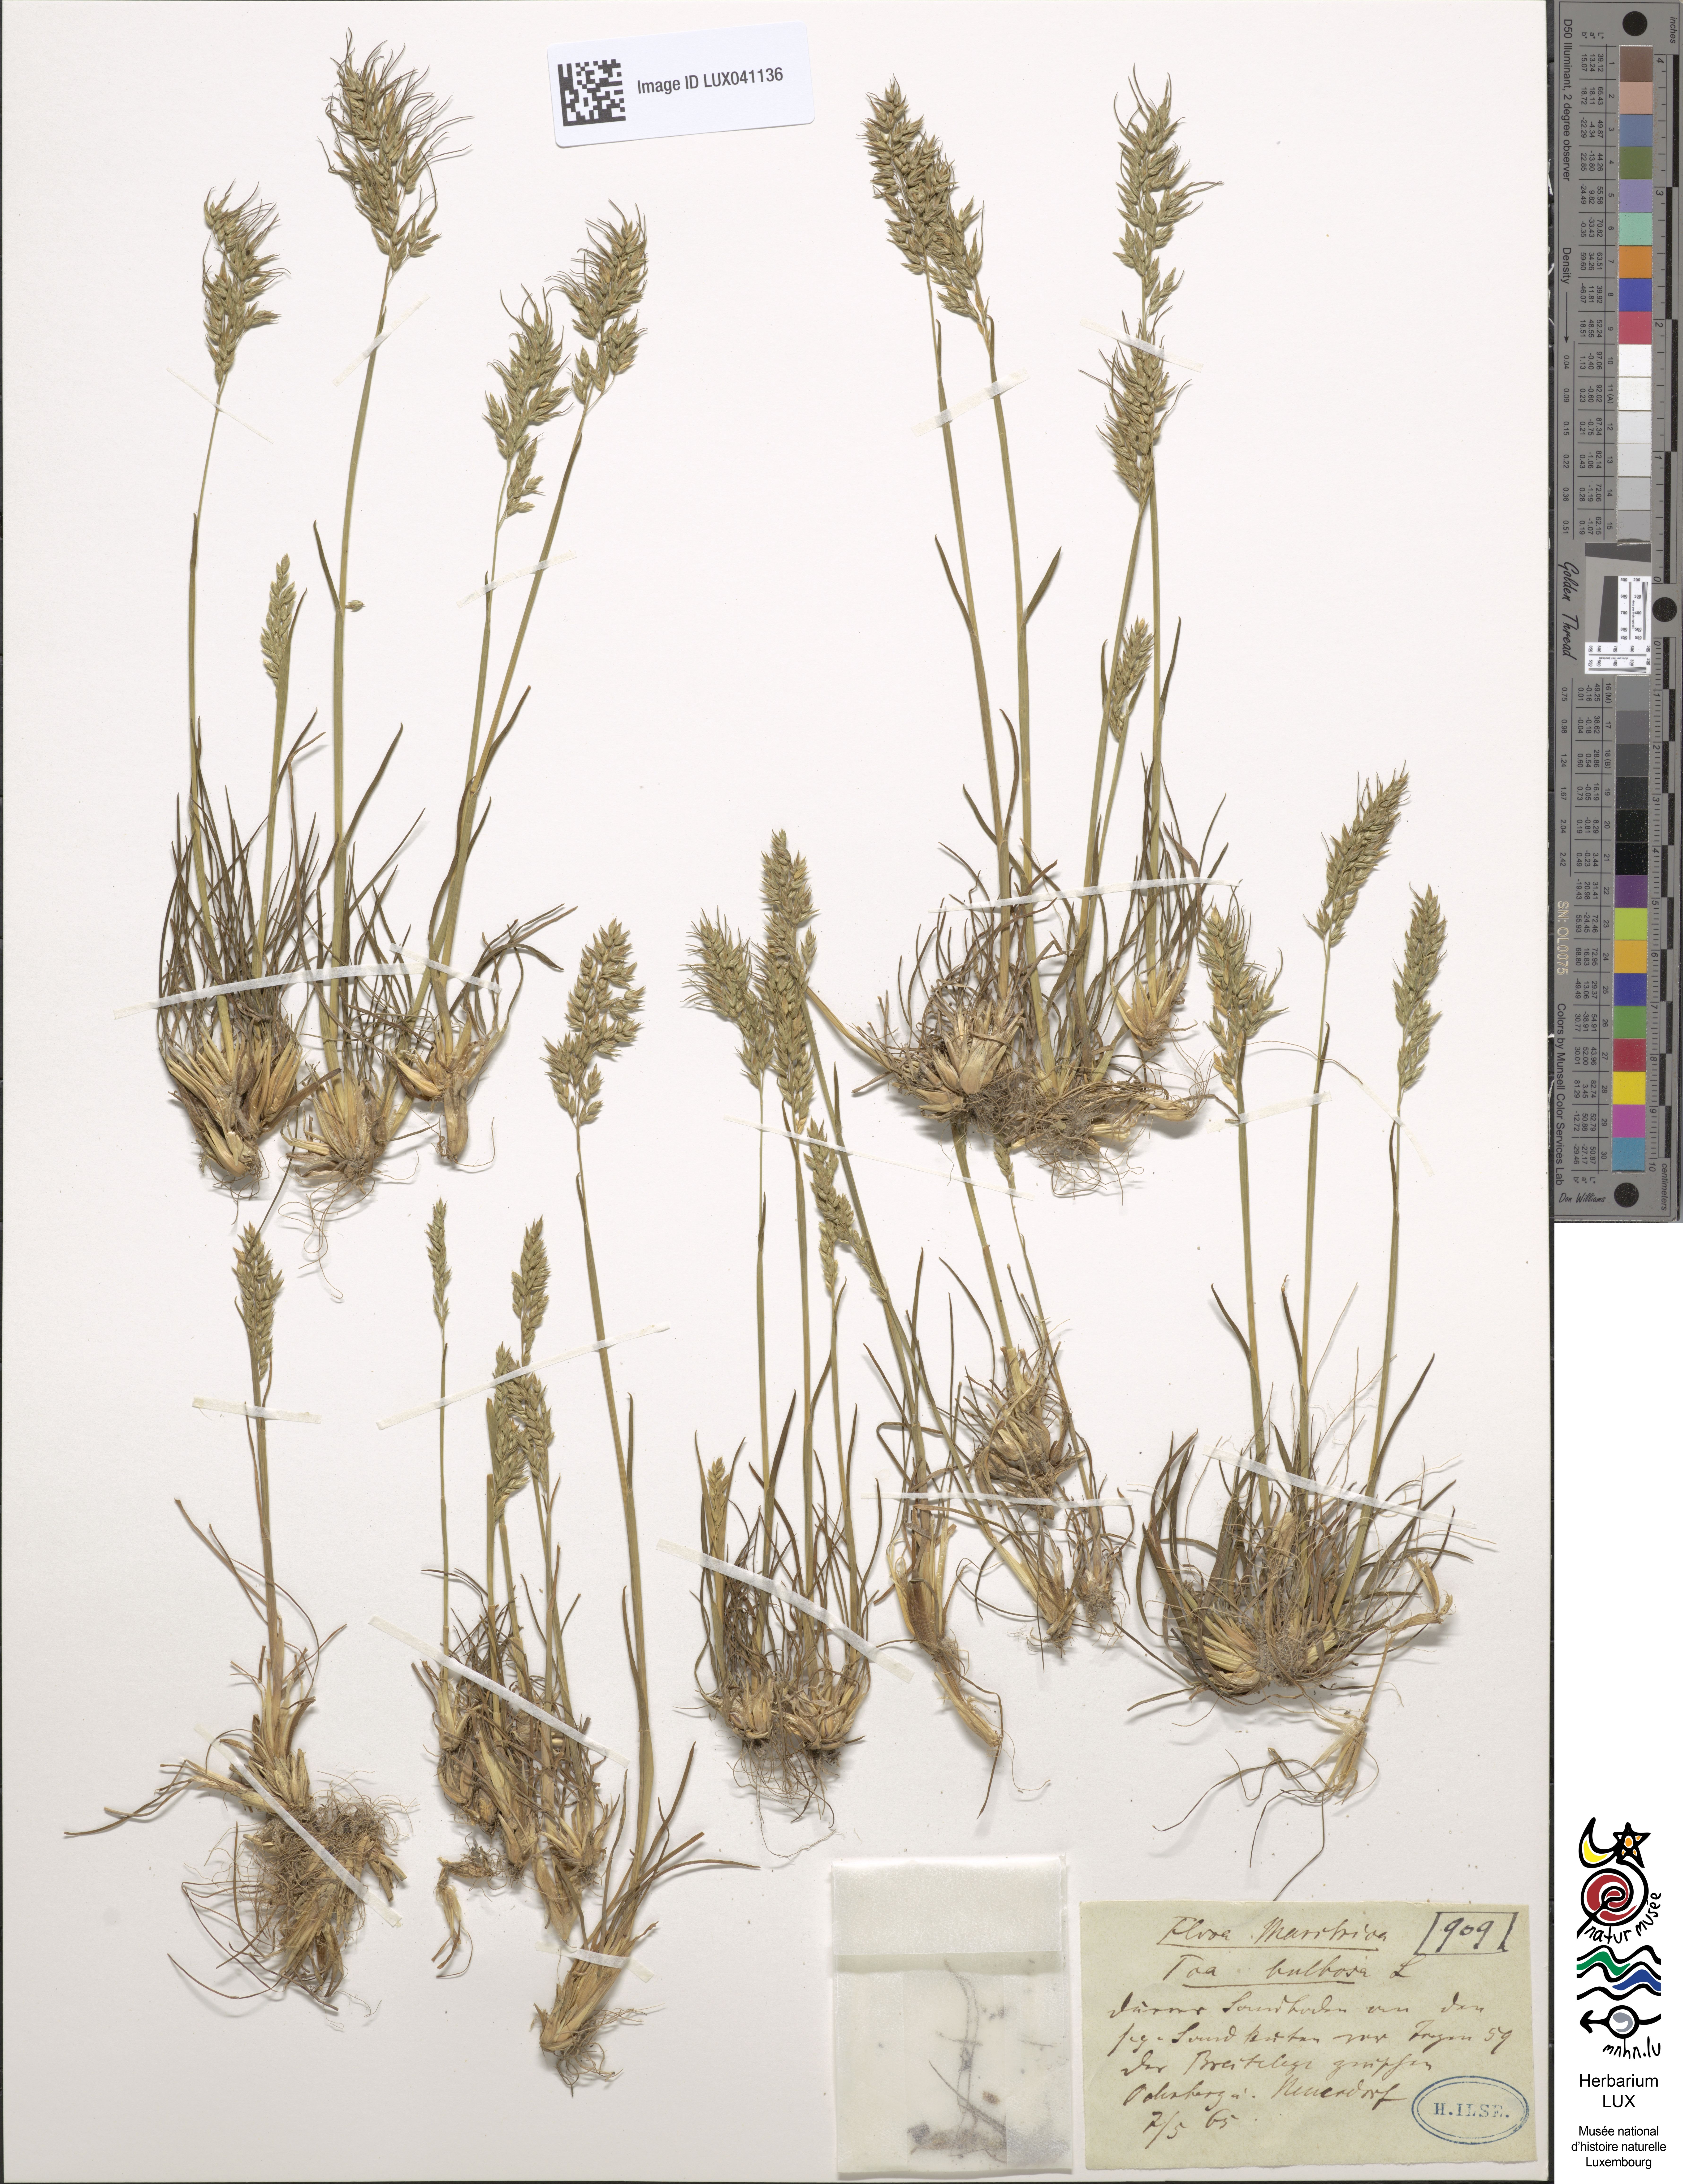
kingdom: Plantae
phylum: Tracheophyta
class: Liliopsida
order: Poales
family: Poaceae
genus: Poa
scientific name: Poa bulbosa
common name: Bulbous bluegrass
